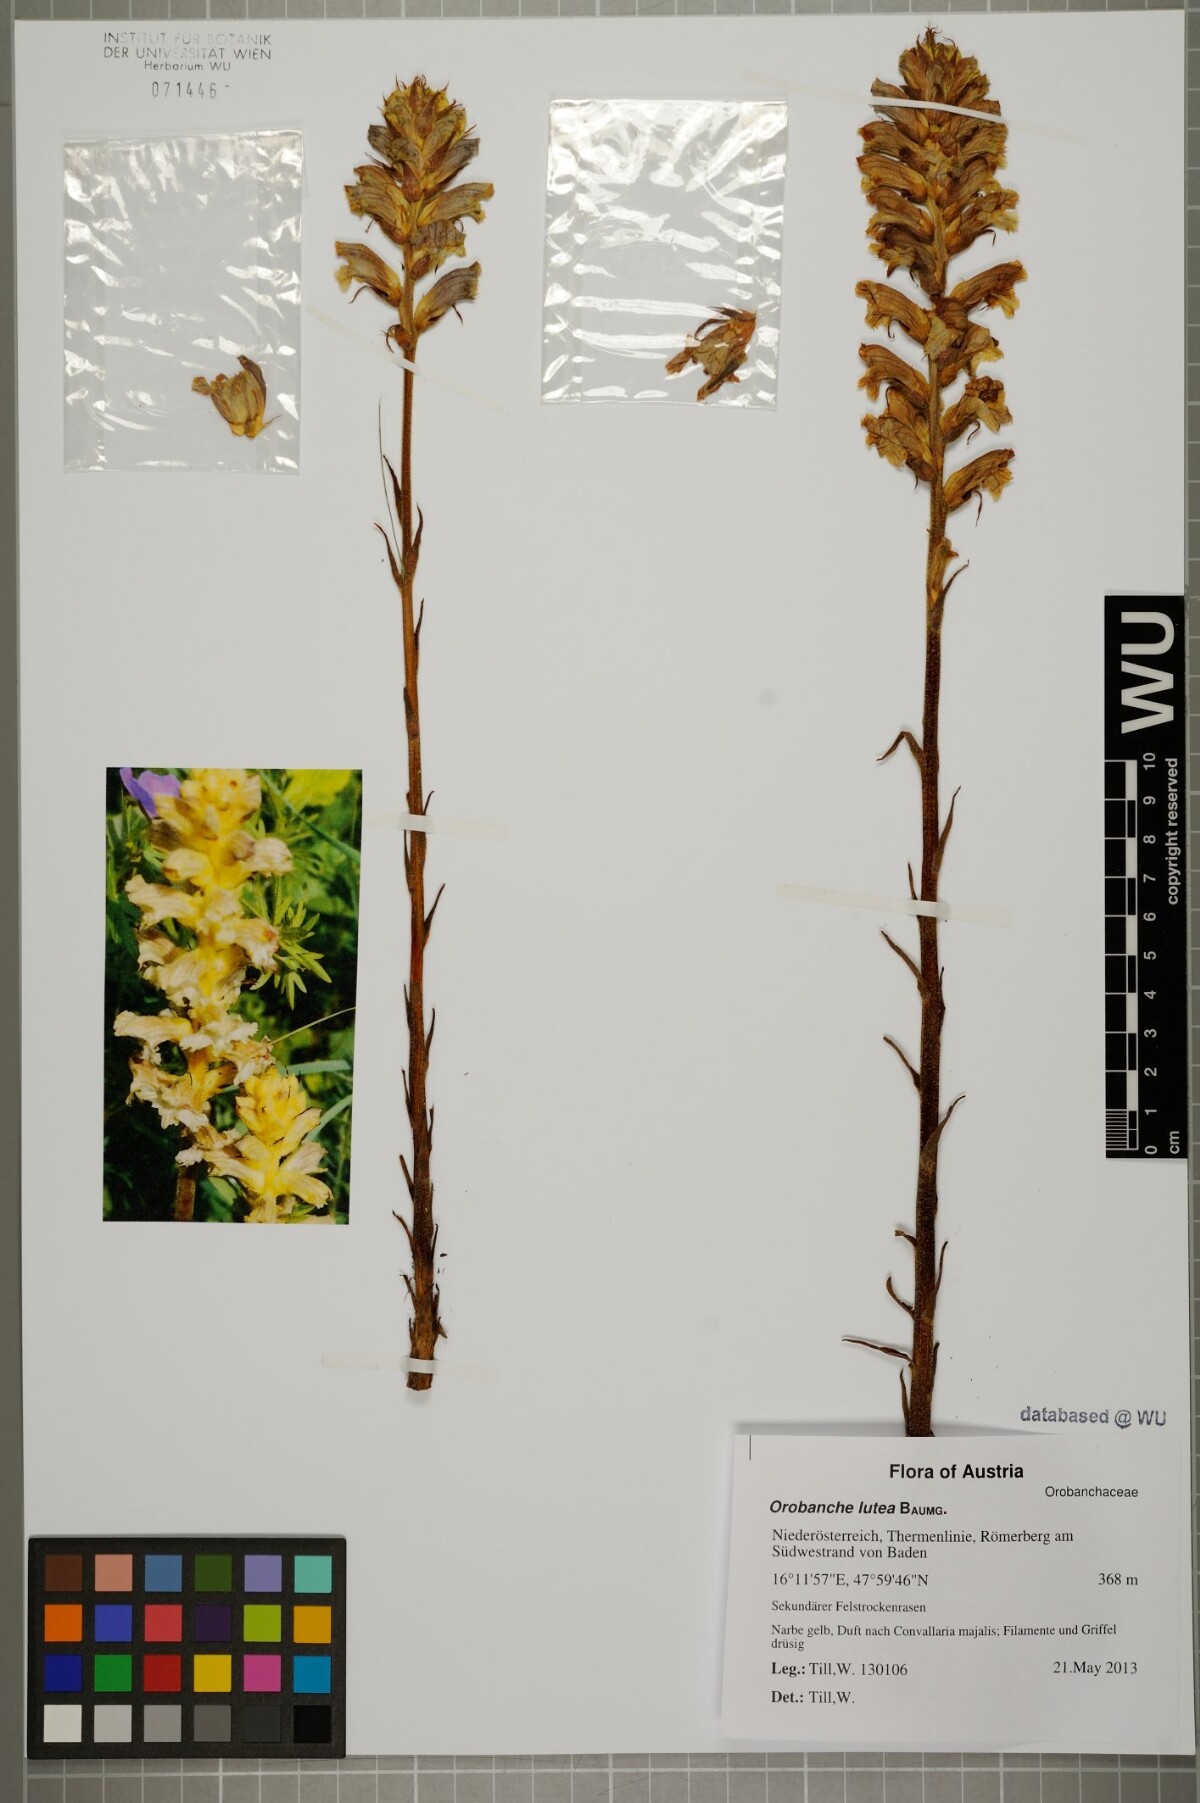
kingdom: Plantae
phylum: Tracheophyta
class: Magnoliopsida
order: Lamiales
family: Orobanchaceae
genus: Orobanche
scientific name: Orobanche lutea
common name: Yellow broomrape
